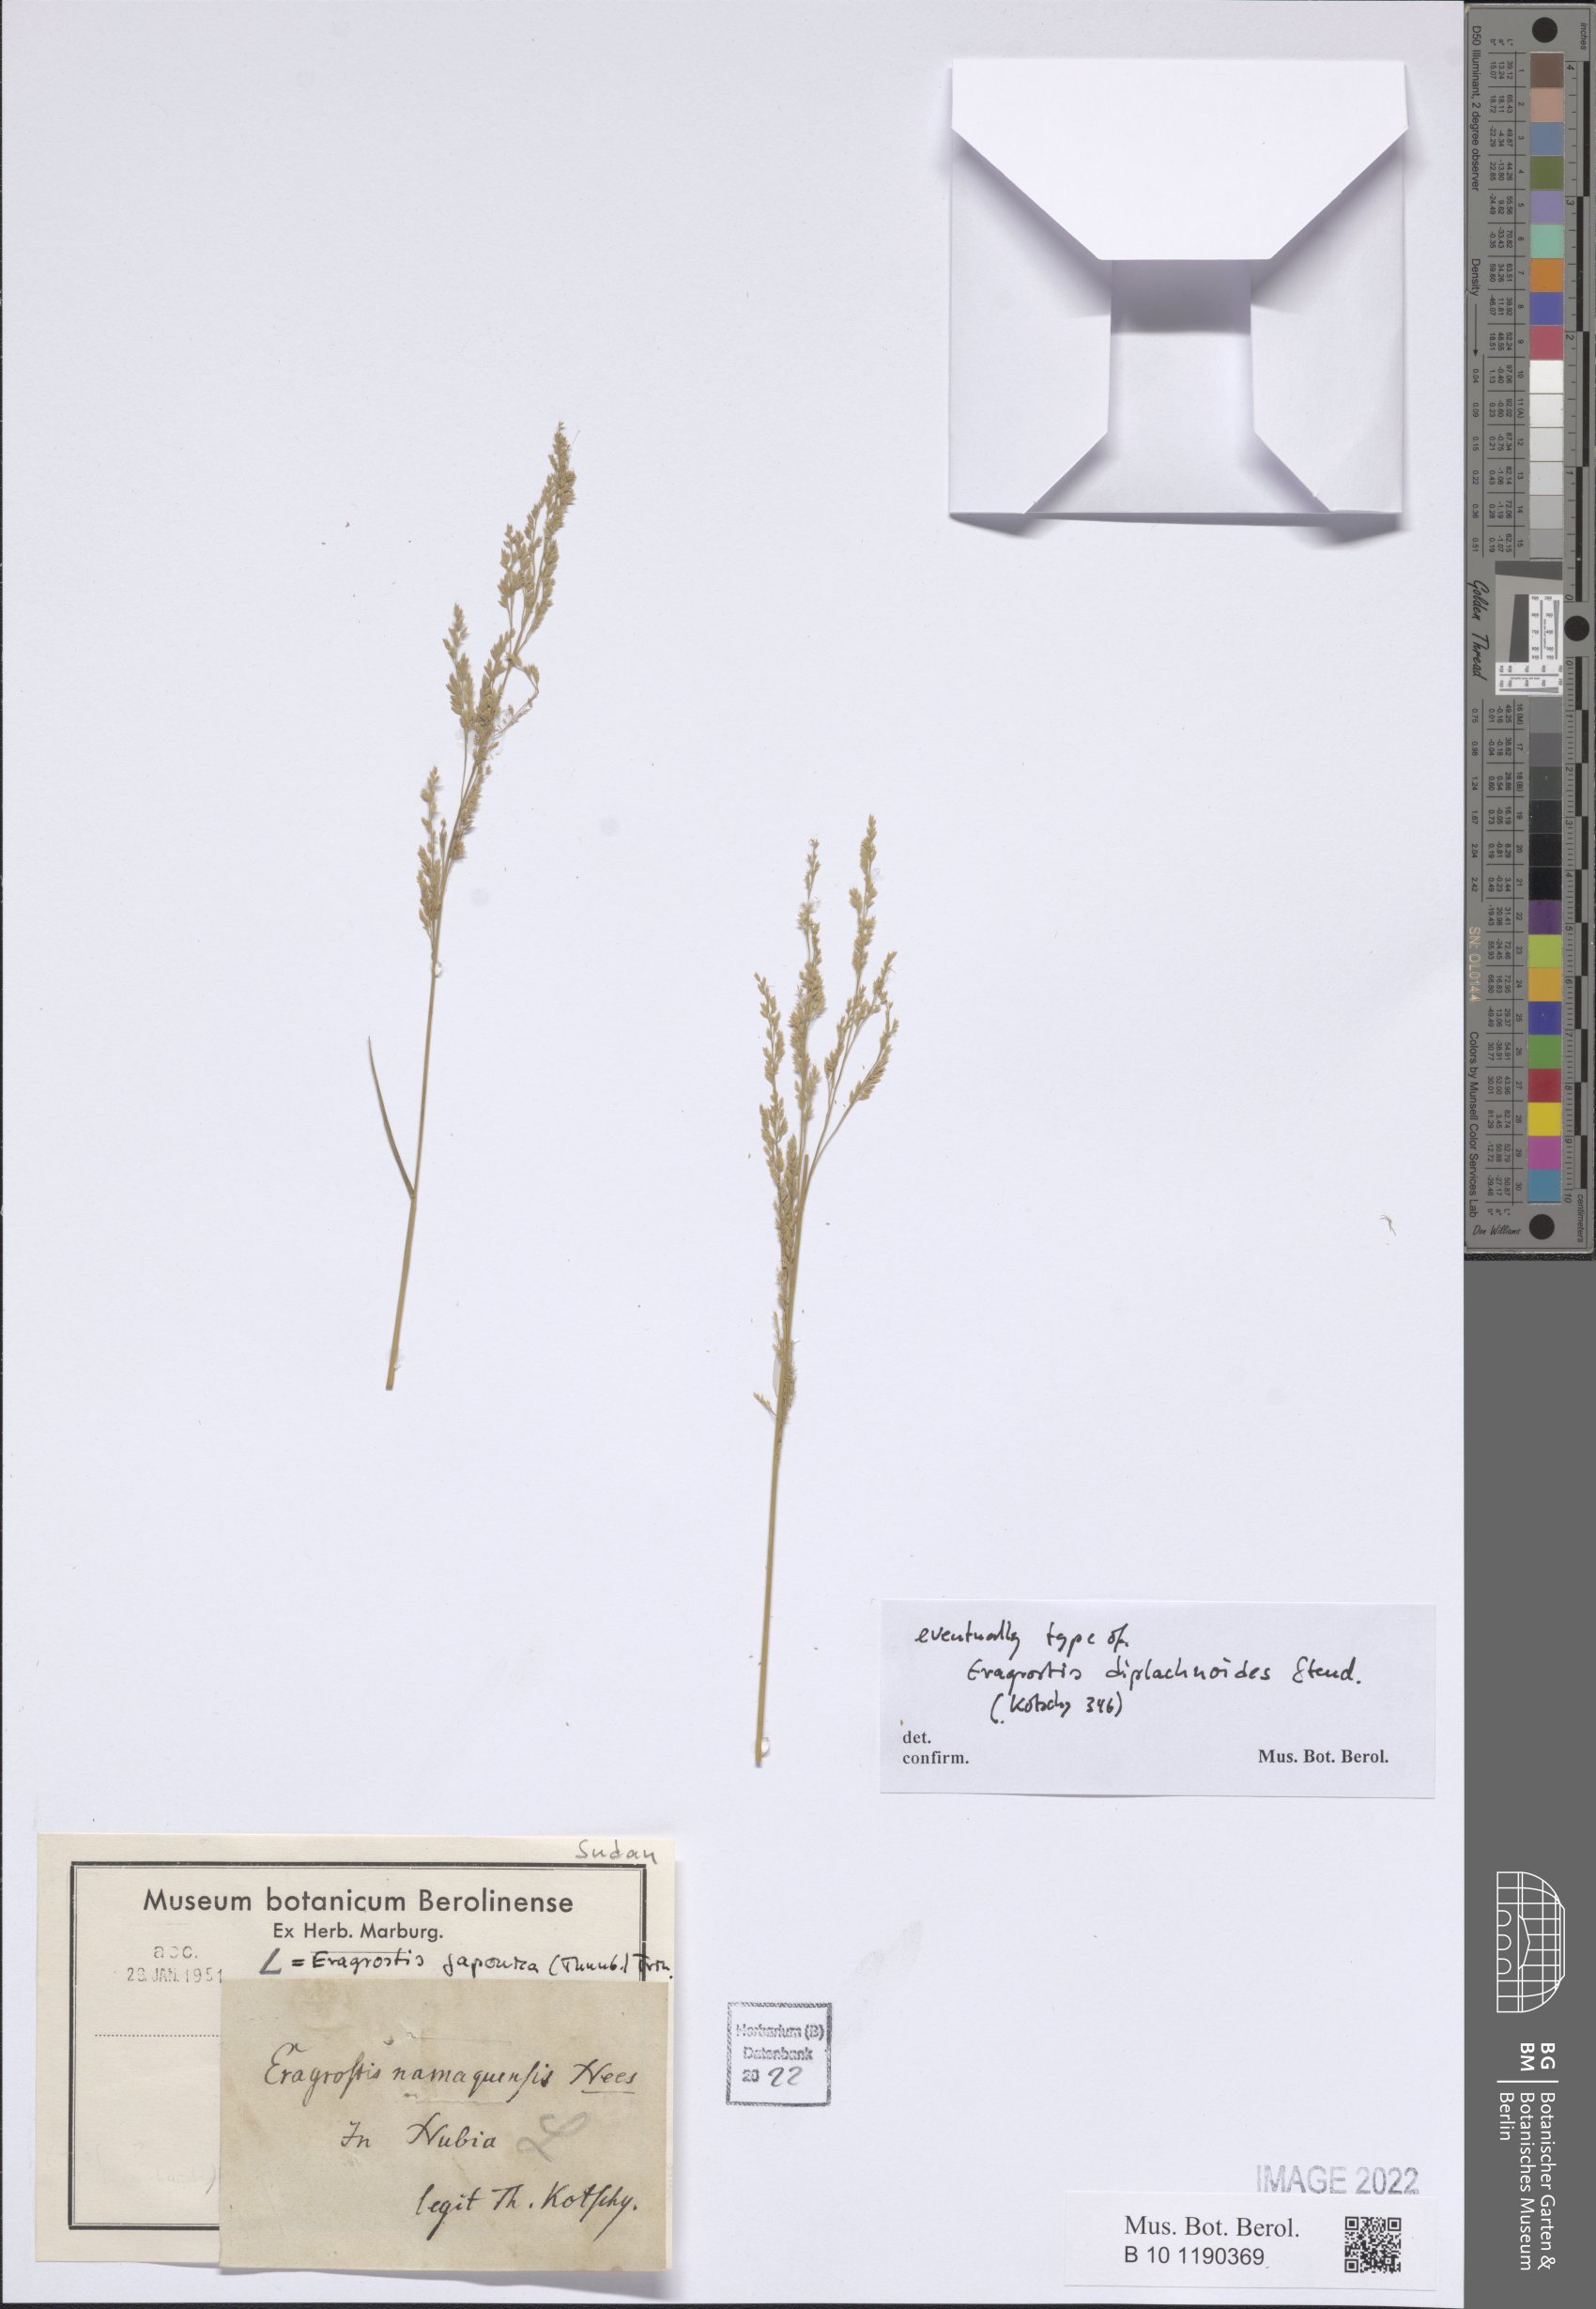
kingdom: Plantae
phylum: Tracheophyta
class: Liliopsida
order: Poales
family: Poaceae
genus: Eragrostis
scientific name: Eragrostis japonica
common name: Pond lovegrass
